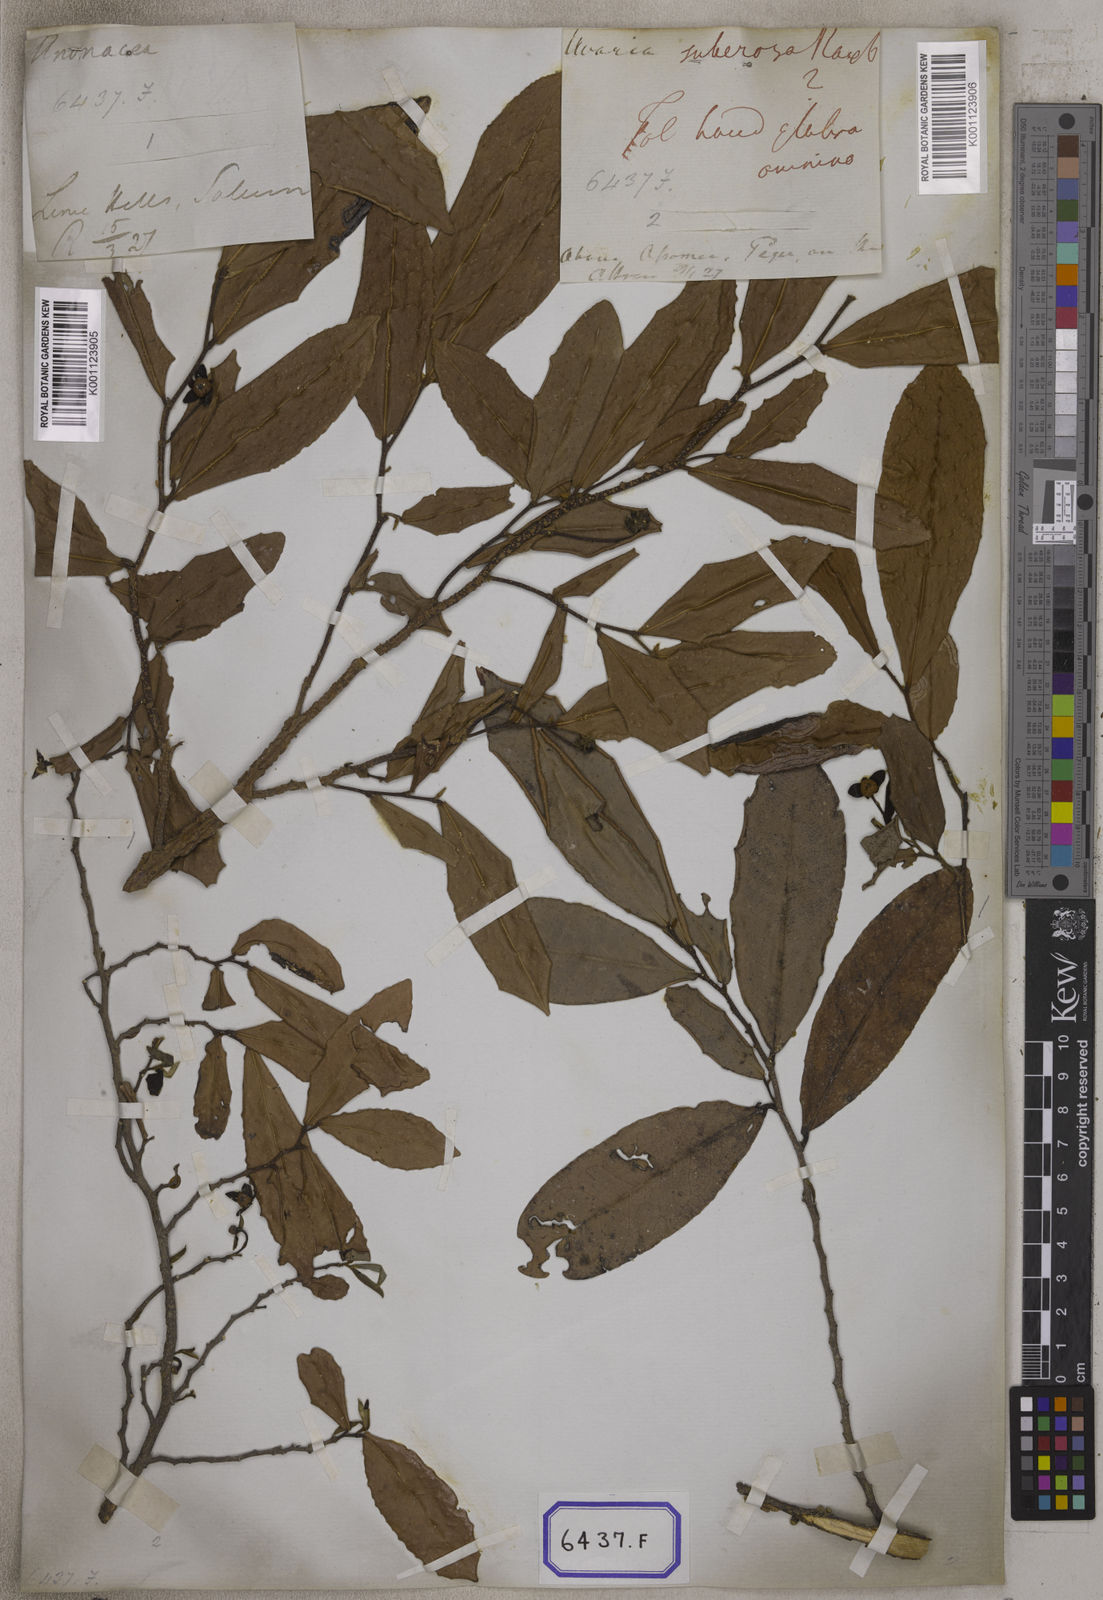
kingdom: Plantae
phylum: Tracheophyta
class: Magnoliopsida
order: Magnoliales
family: Annonaceae
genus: Polyalthia
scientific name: Polyalthia suberosa
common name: Polyalthia plant
